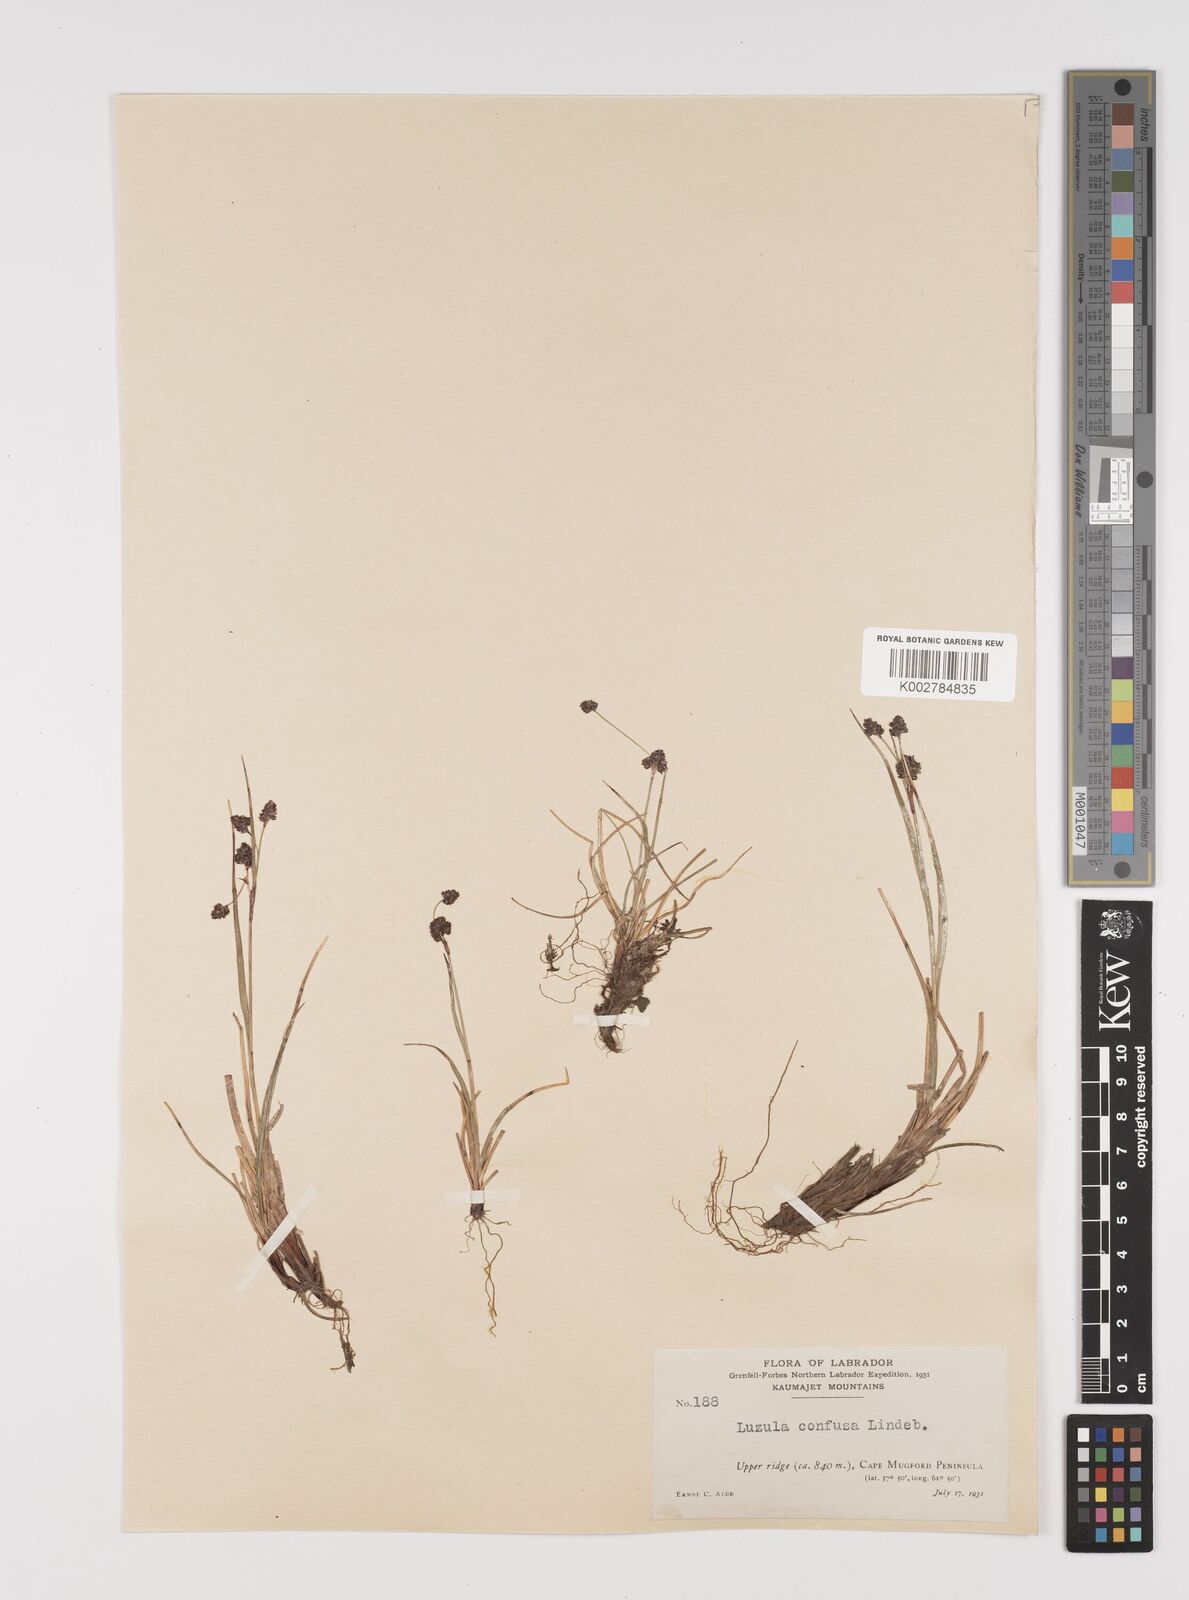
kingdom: Plantae
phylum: Tracheophyta
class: Liliopsida
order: Poales
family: Juncaceae
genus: Luzula
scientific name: Luzula confusa
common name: Northern wood rush
